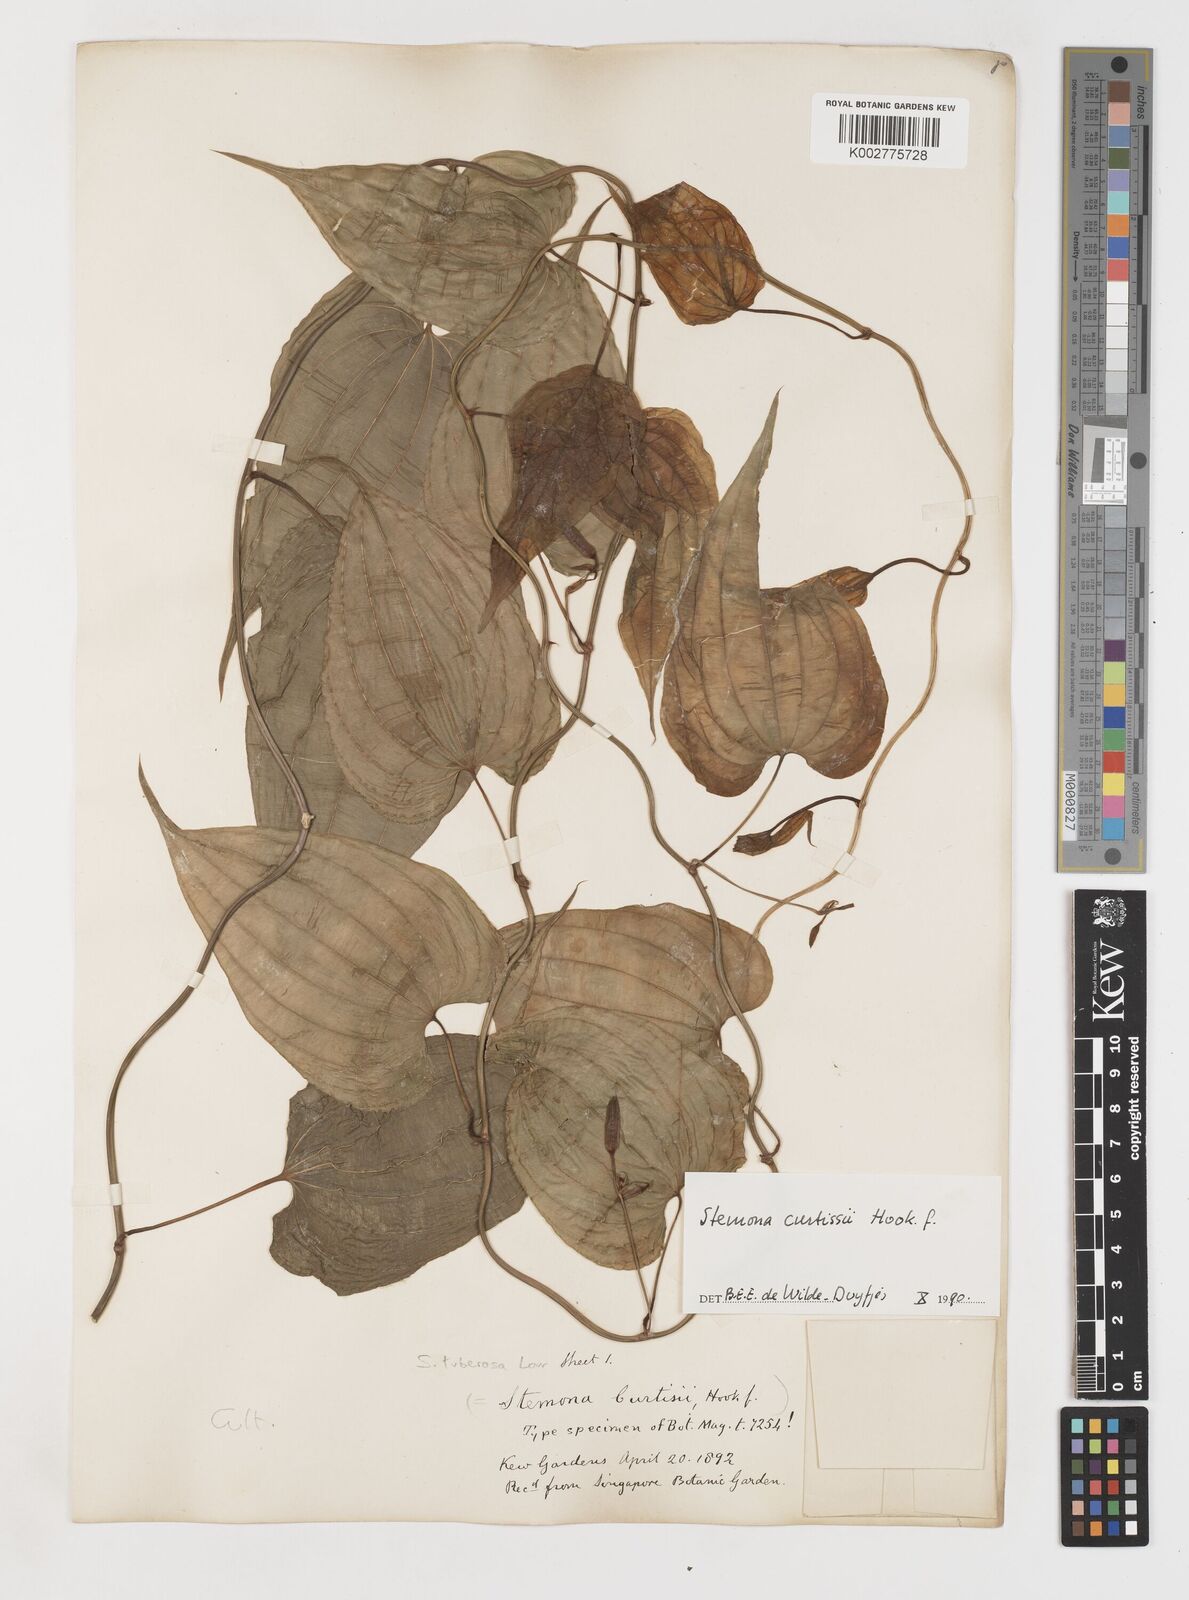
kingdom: Plantae
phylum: Tracheophyta
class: Liliopsida
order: Pandanales
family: Stemonaceae
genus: Stemona
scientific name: Stemona tuberosa
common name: Stemona
